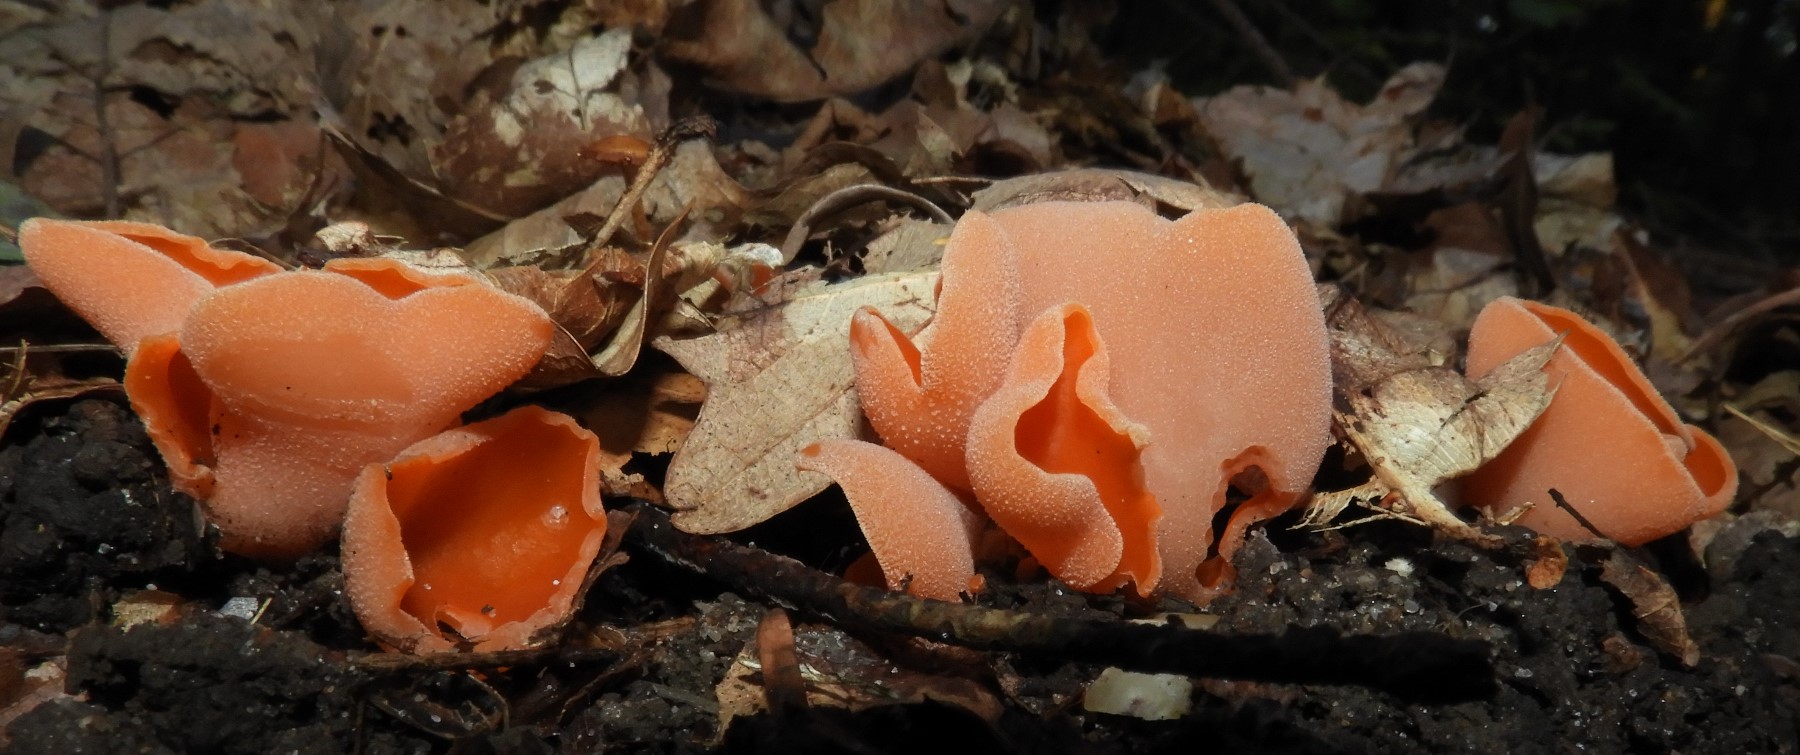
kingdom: Fungi
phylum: Ascomycota
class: Pezizomycetes
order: Pezizales
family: Pyronemataceae
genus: Aleuria
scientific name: Aleuria aurantia
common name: almindelig orangebæger
